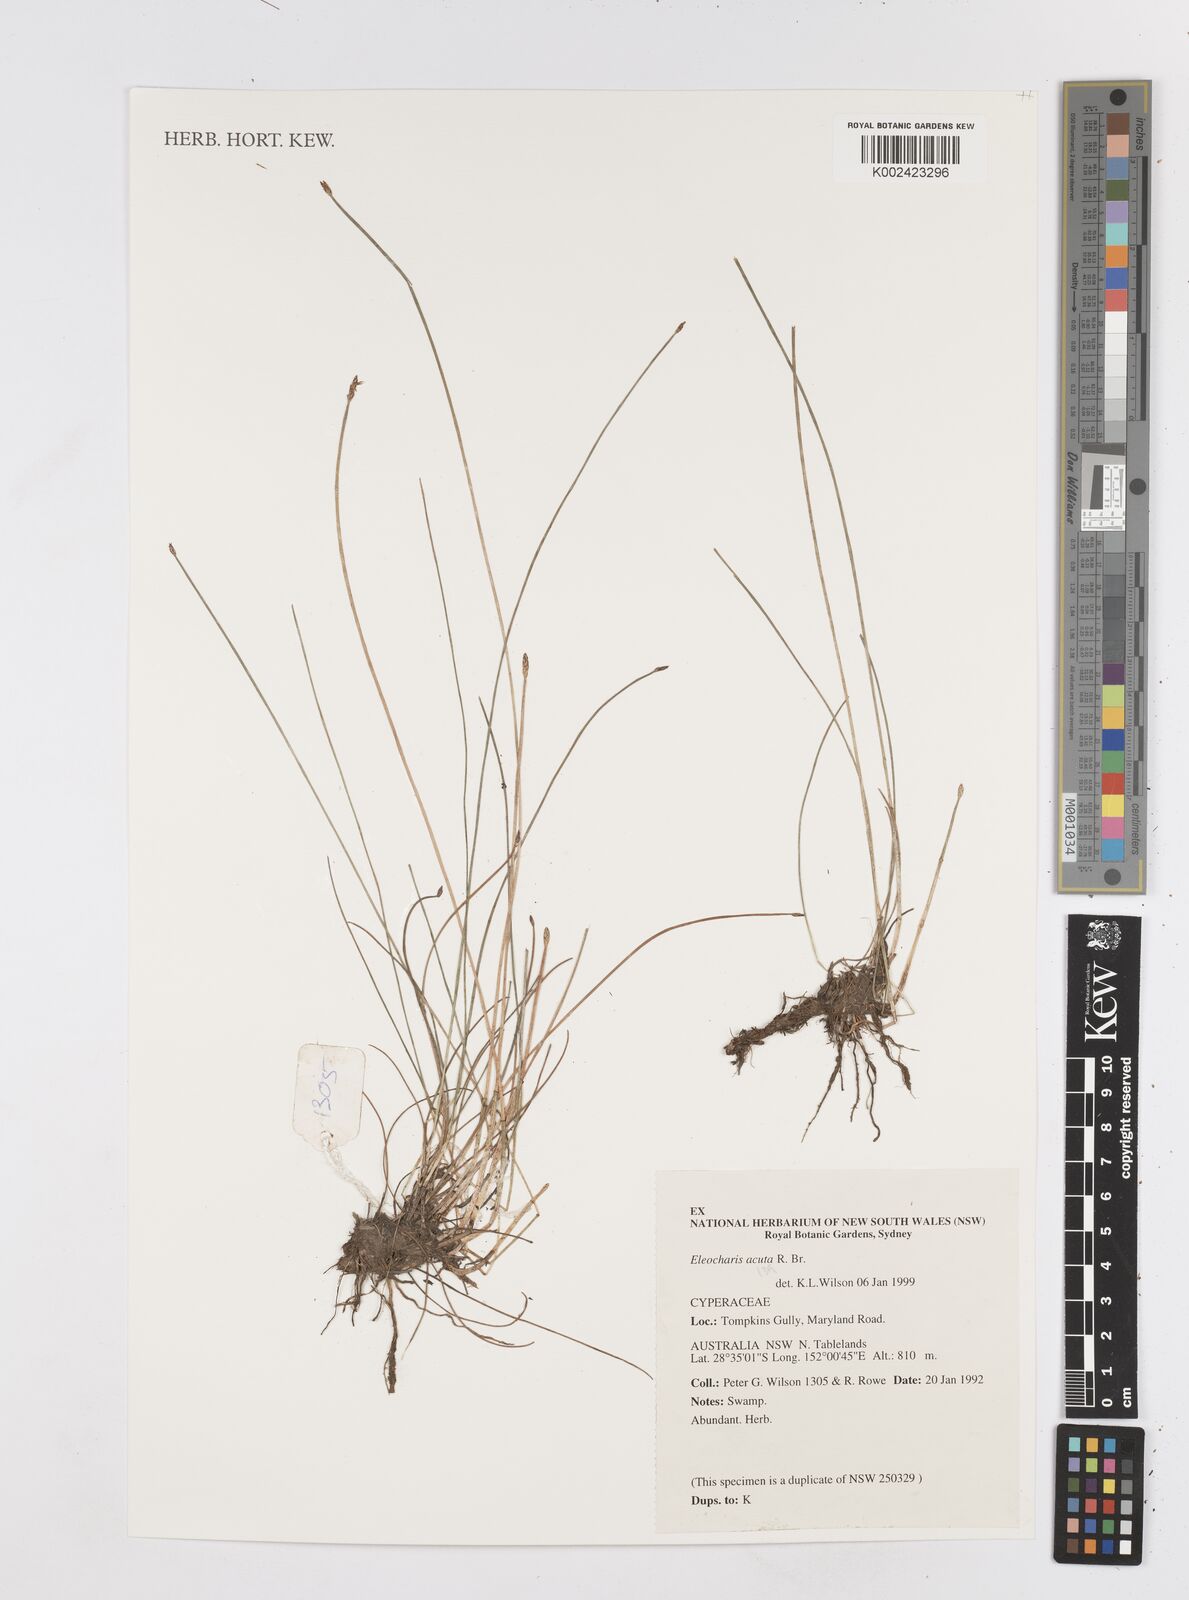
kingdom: Plantae
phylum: Tracheophyta
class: Liliopsida
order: Poales
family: Cyperaceae
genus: Eleocharis
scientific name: Eleocharis tetraquetra
